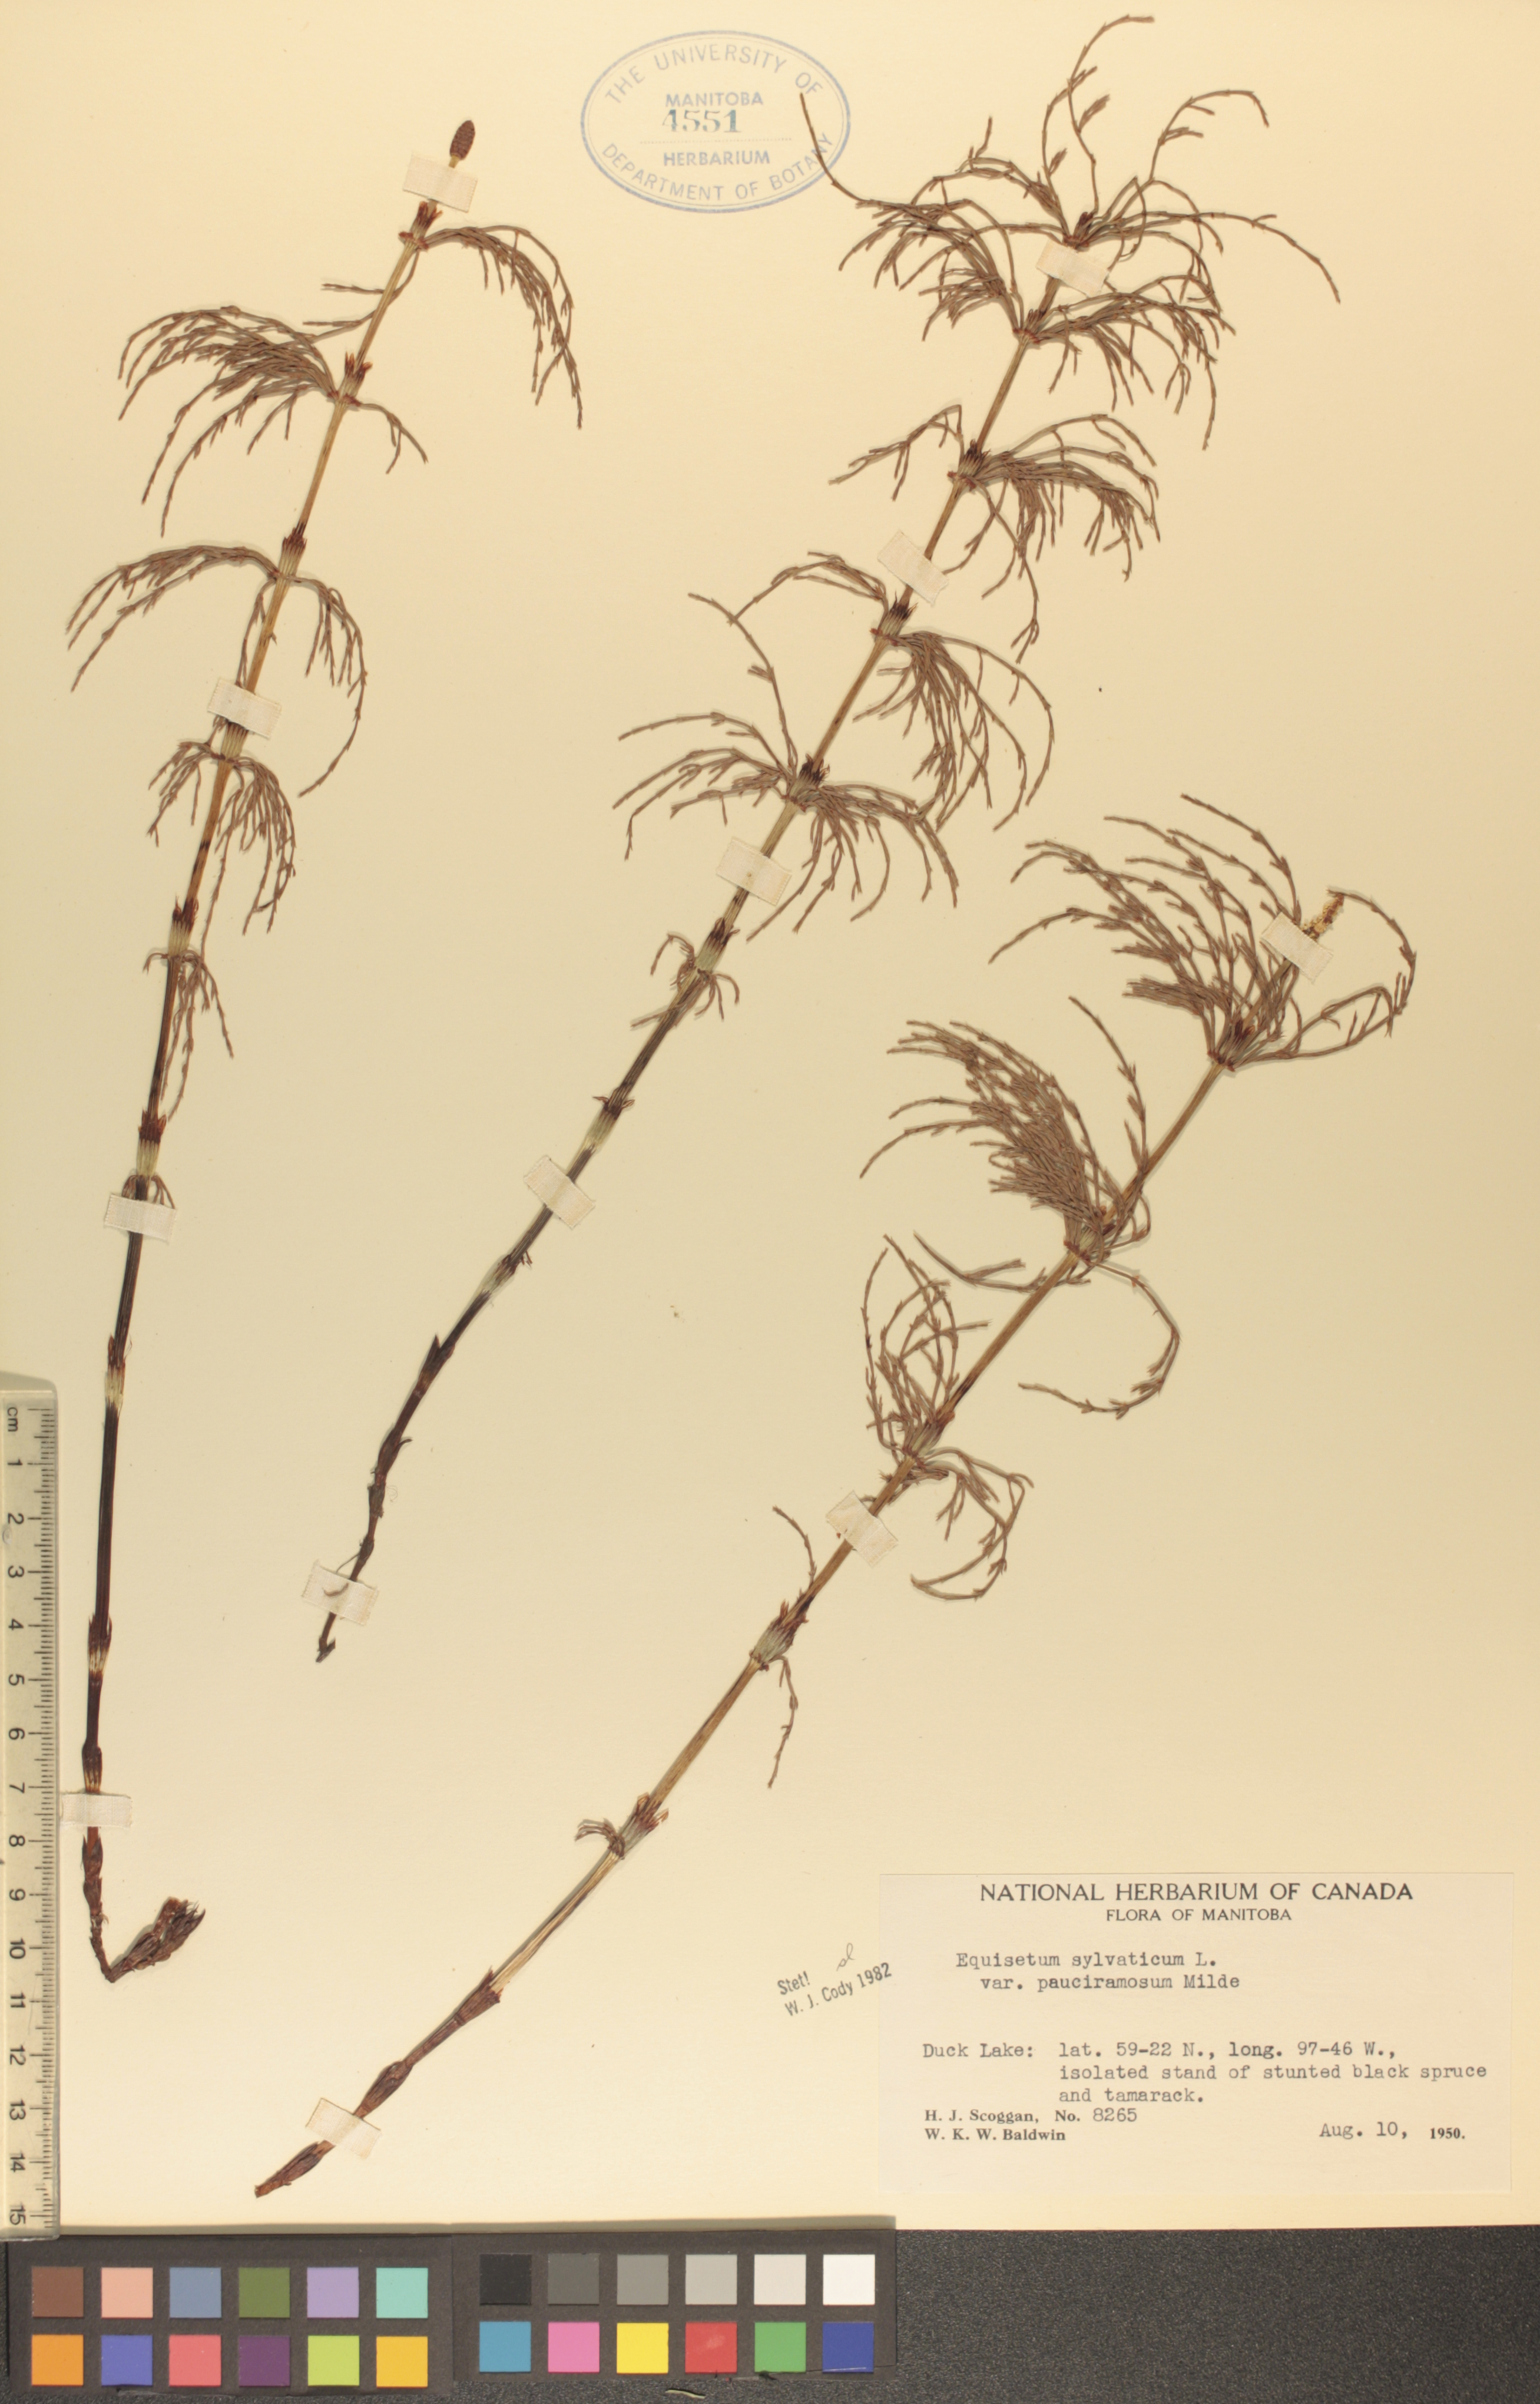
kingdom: Plantae
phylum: Tracheophyta
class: Polypodiopsida
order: Equisetales
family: Equisetaceae
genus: Equisetum
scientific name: Equisetum sylvaticum
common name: Wood horsetail
